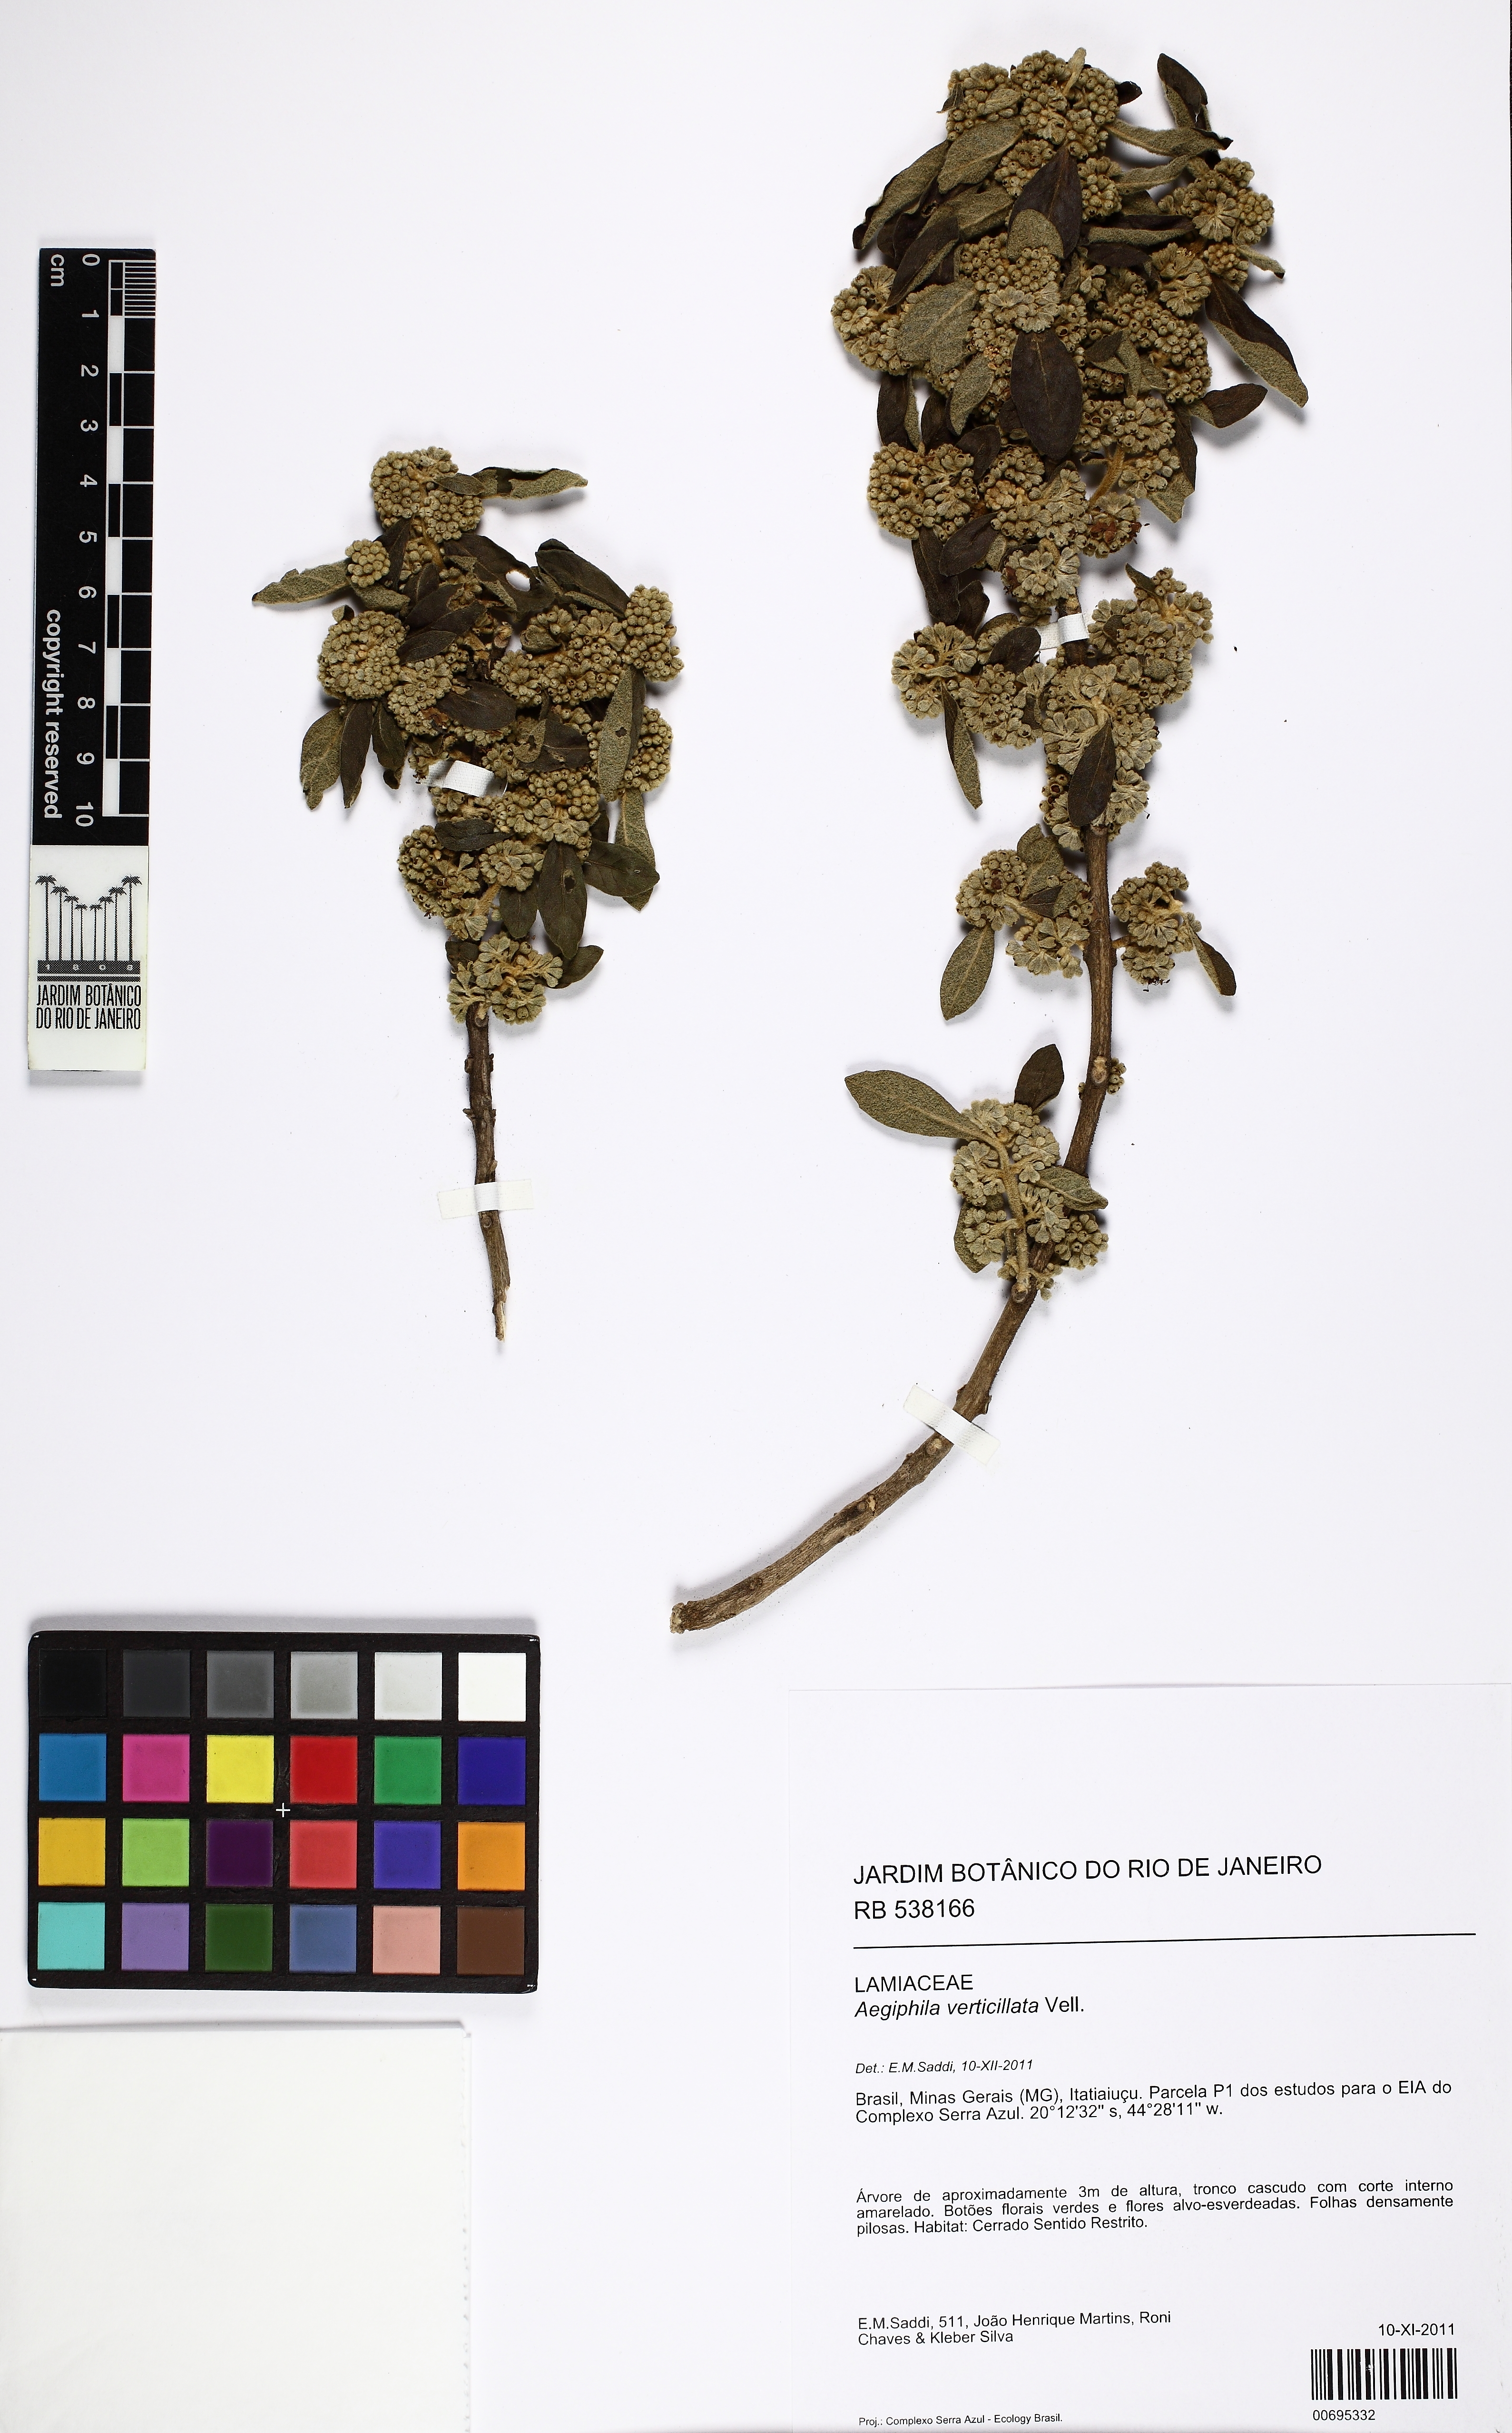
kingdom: Plantae
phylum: Tracheophyta
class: Magnoliopsida
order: Lamiales
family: Lamiaceae
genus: Aegiphila
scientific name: Aegiphila verticillata
